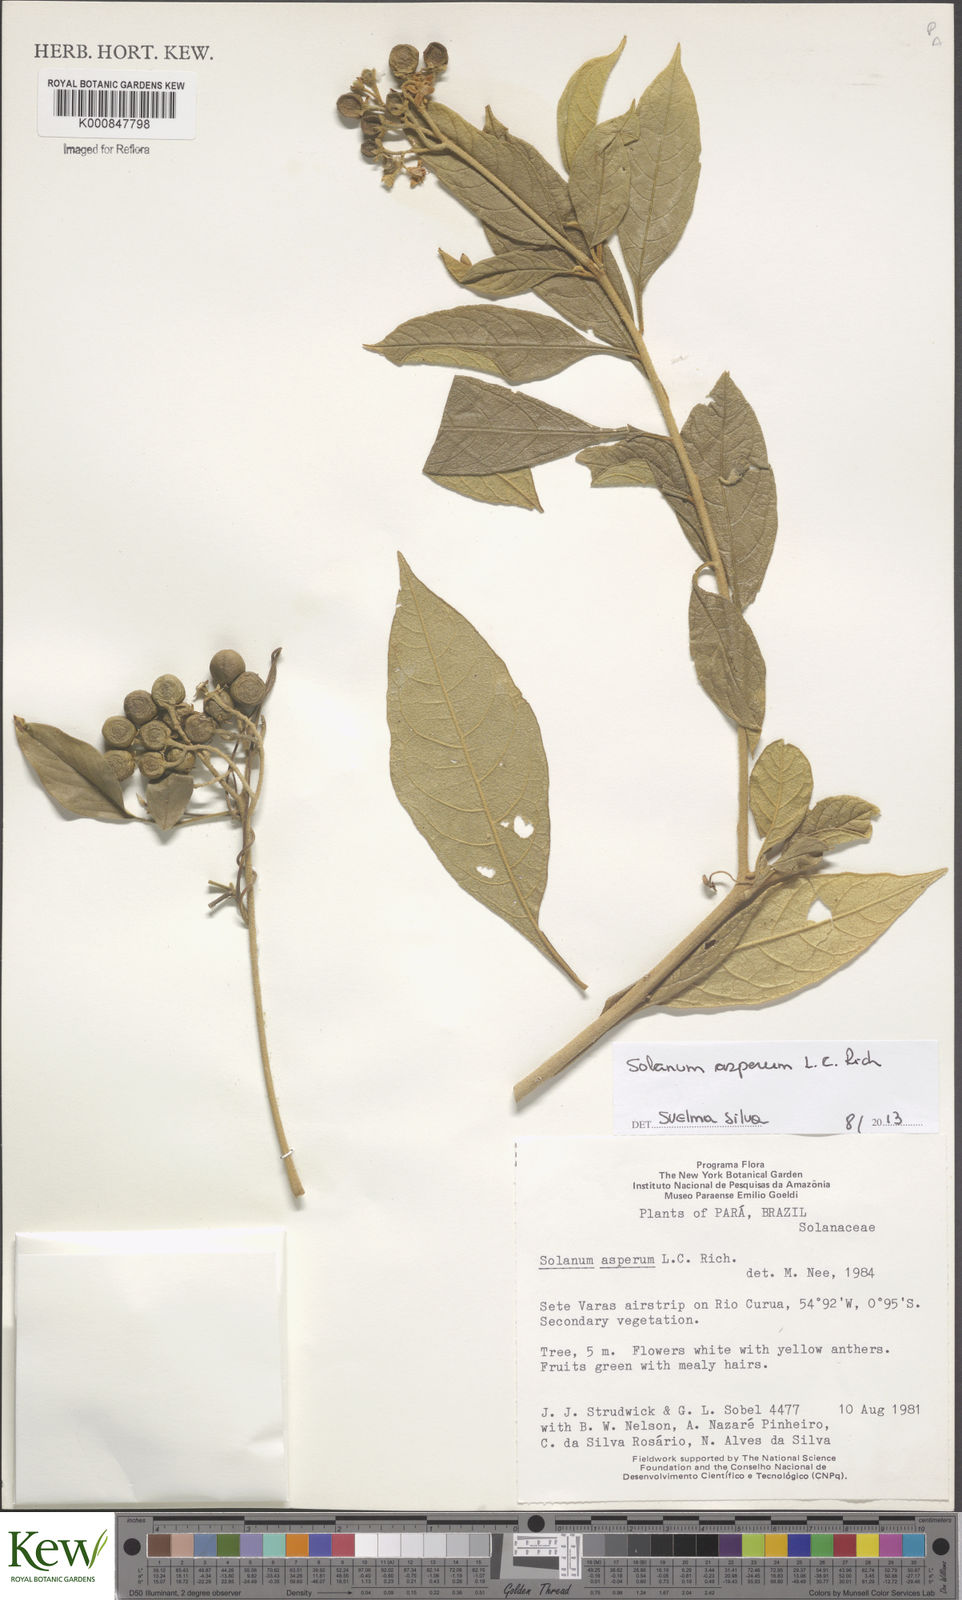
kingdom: Plantae
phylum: Tracheophyta
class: Magnoliopsida
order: Solanales
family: Solanaceae
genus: Solanum
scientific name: Solanum asperum
